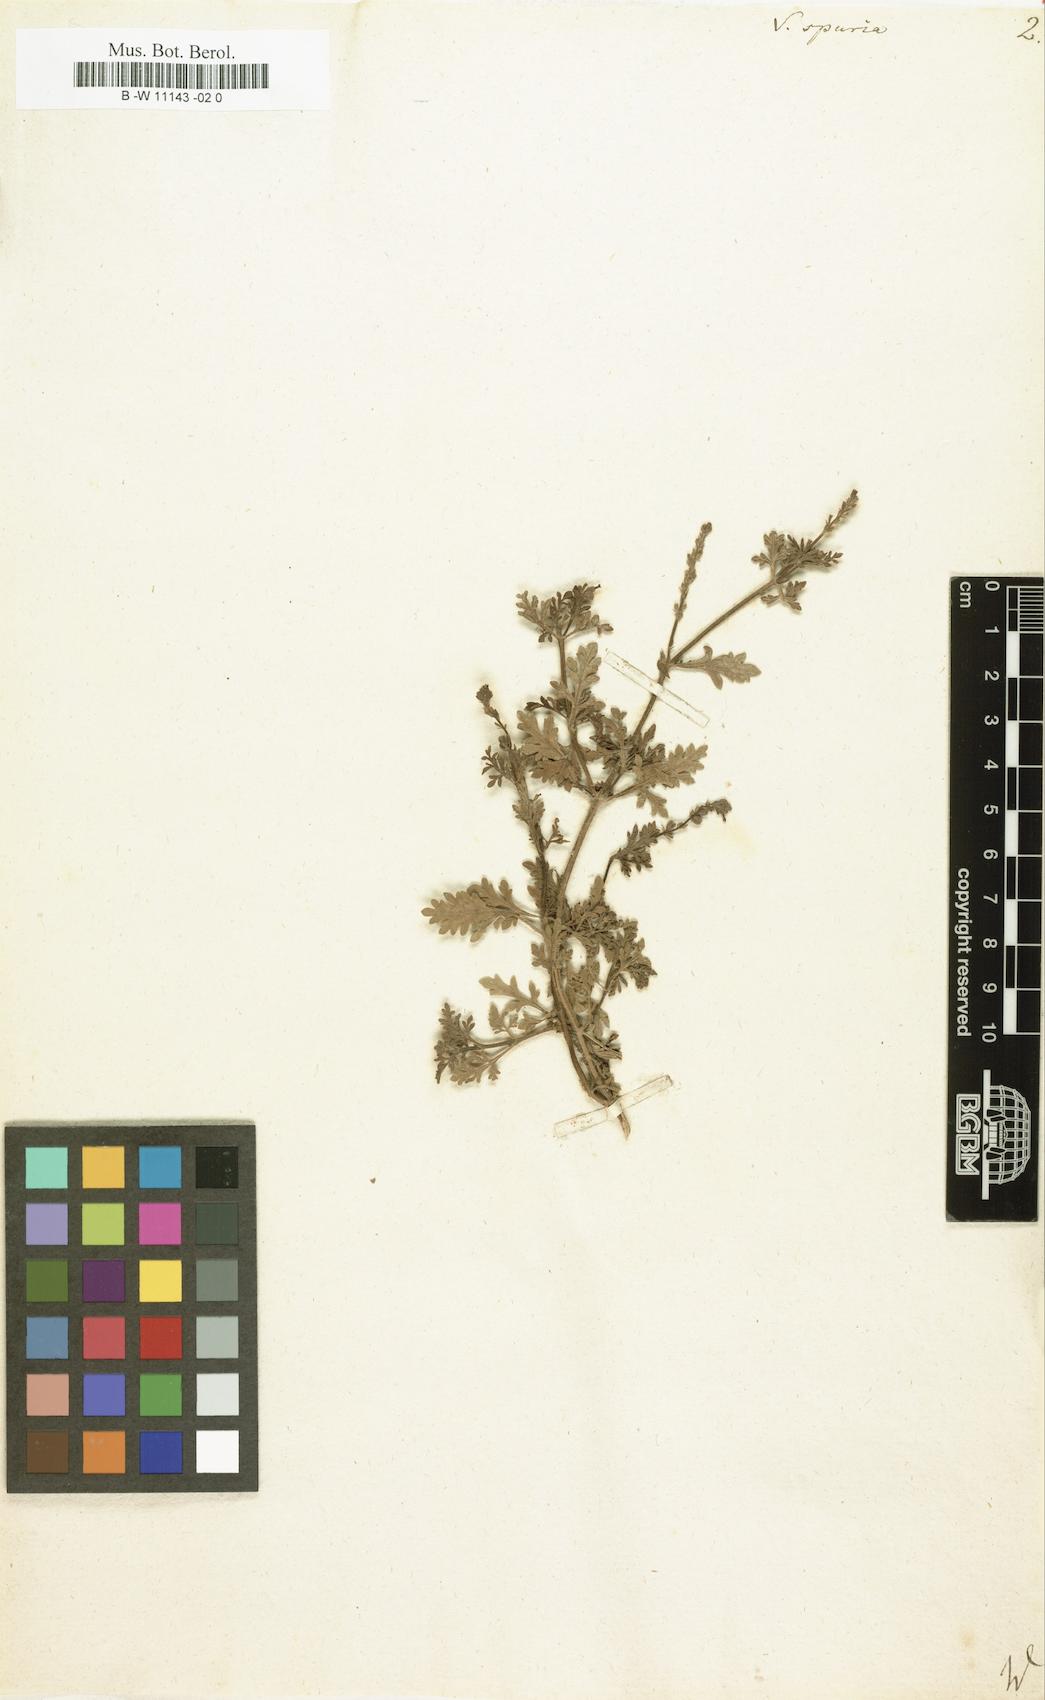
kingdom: Plantae
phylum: Tracheophyta
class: Magnoliopsida
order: Lamiales
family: Verbenaceae
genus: Verbena
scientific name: Verbena officinalis
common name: Vervain
